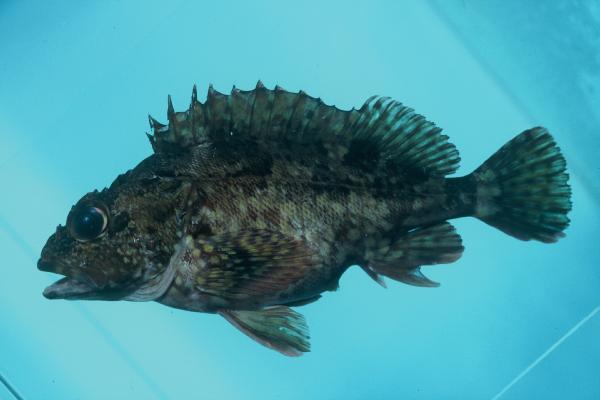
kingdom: Animalia
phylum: Chordata
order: Scorpaeniformes
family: Sebastidae
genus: Sebastiscus
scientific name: Sebastiscus marmoratus
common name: False kelpfish
